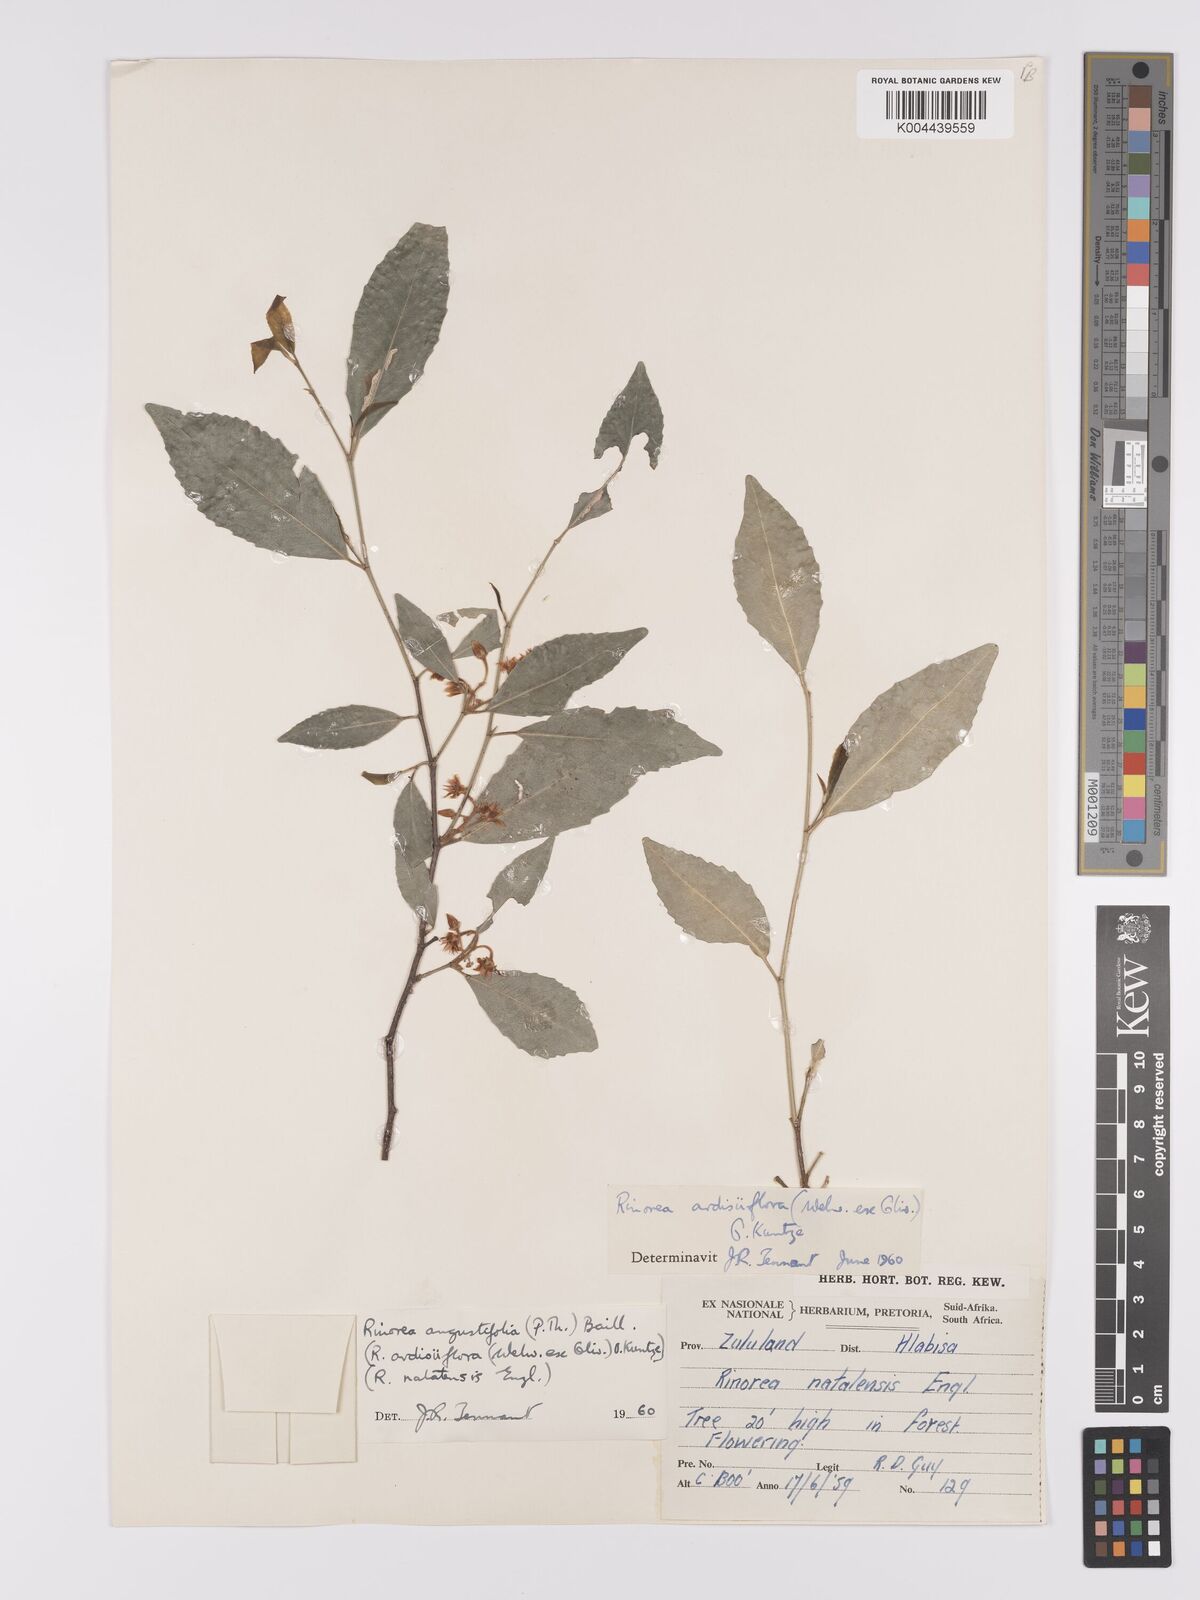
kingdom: Plantae
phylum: Tracheophyta
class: Magnoliopsida
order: Malpighiales
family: Violaceae
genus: Rinorea
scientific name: Rinorea angustifolia
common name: White violet-bush
